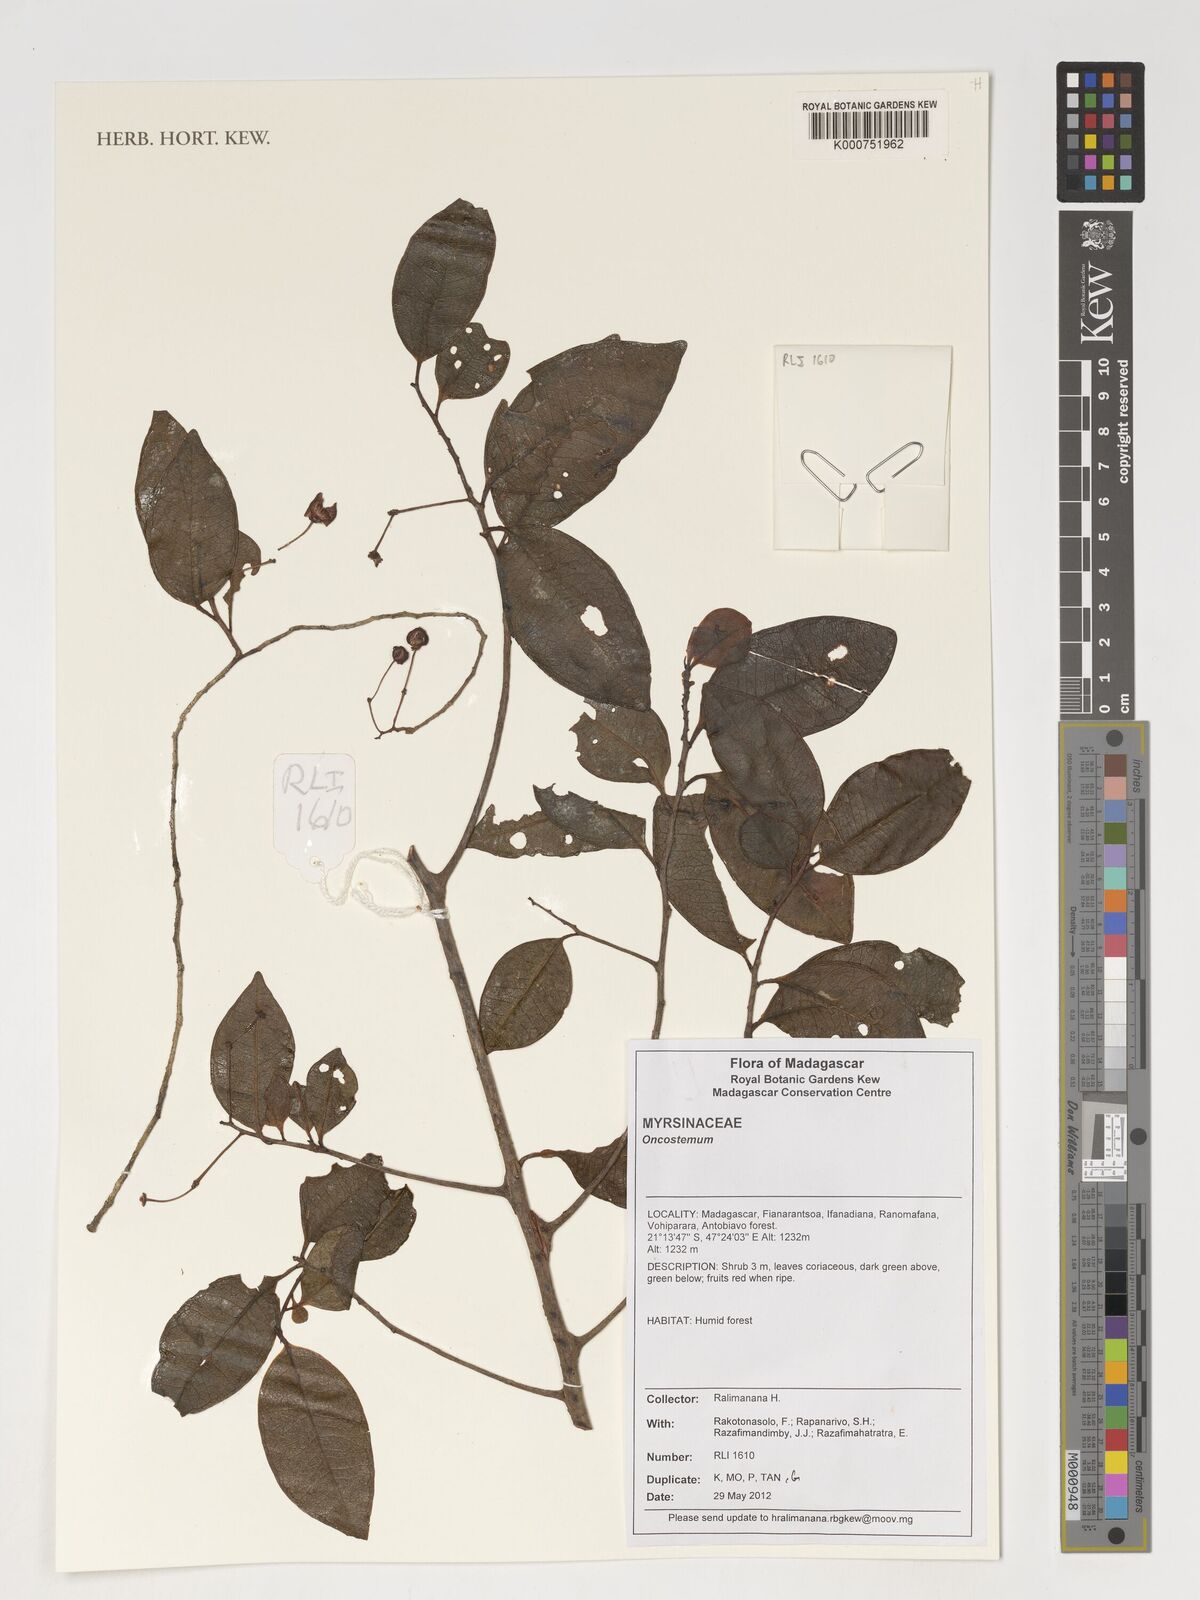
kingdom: Plantae
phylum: Tracheophyta
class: Magnoliopsida
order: Ericales
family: Primulaceae
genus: Oncostemum
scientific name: Oncostemum
